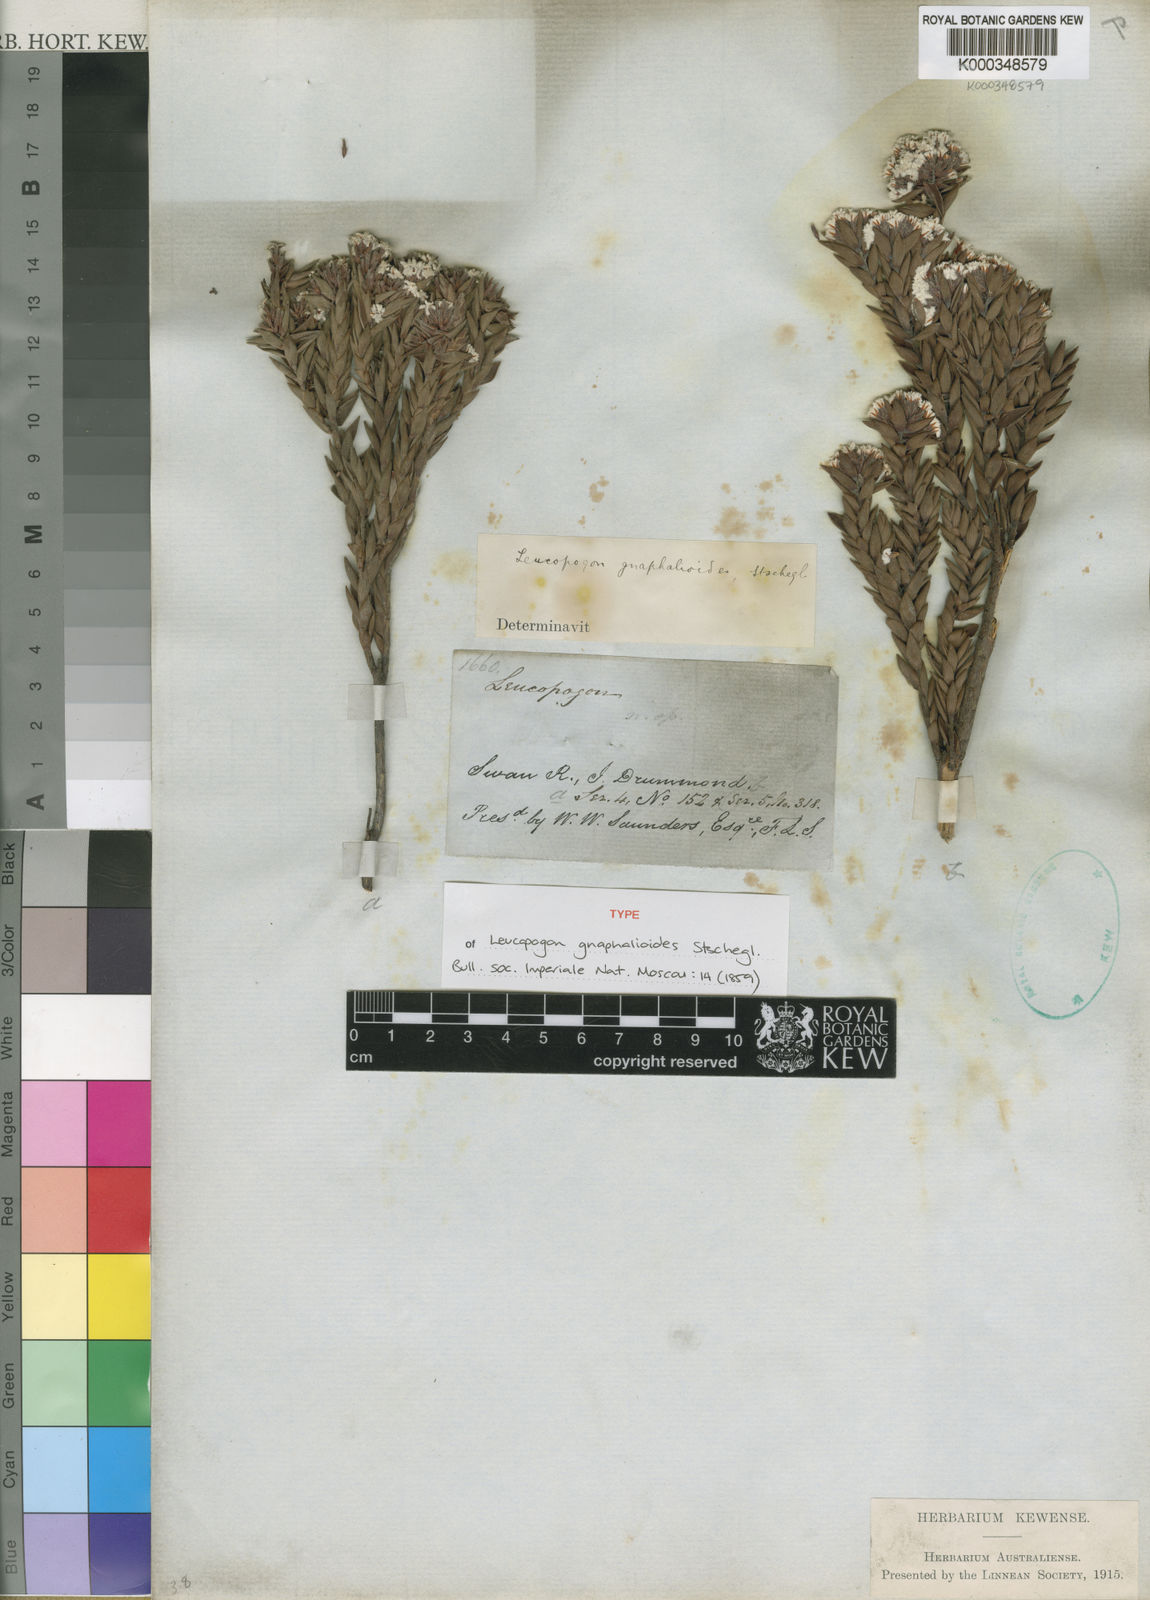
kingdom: Plantae
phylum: Tracheophyta
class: Magnoliopsida
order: Ericales
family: Ericaceae
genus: Leucopogon
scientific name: Leucopogon gnaphalioides
